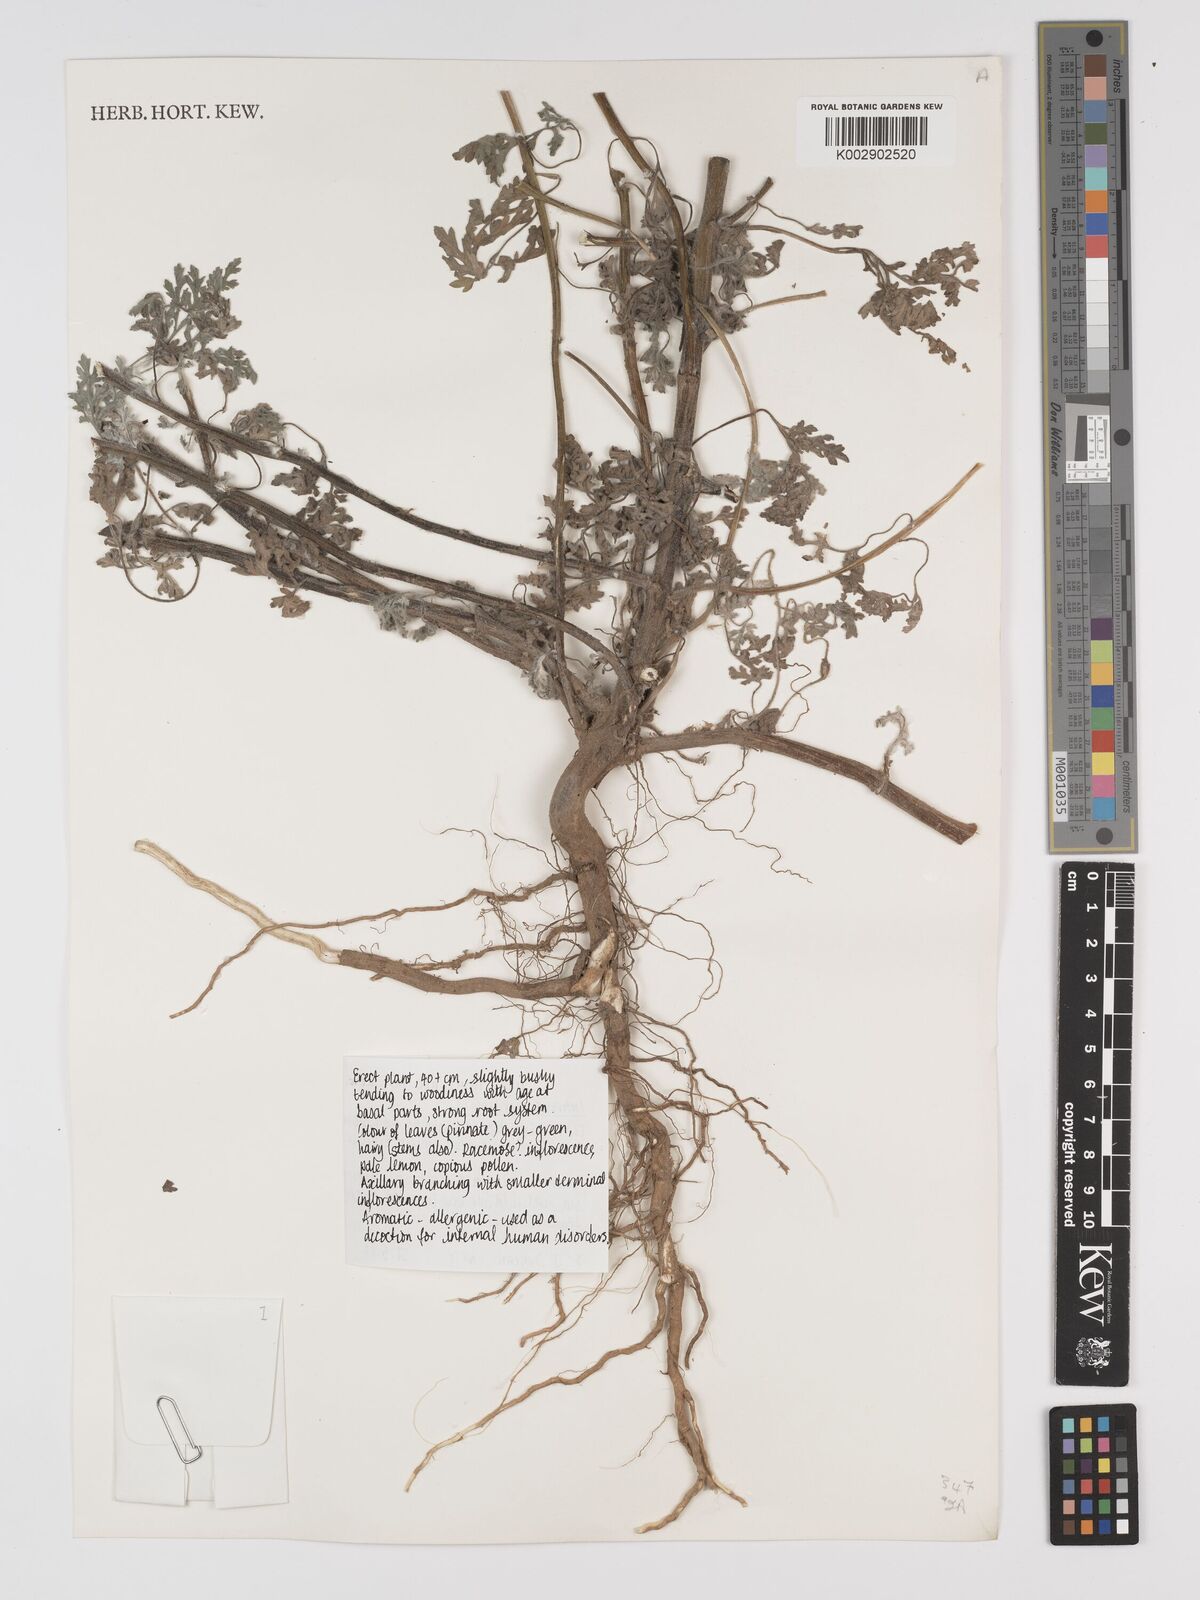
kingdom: Plantae
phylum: Tracheophyta
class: Magnoliopsida
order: Asterales
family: Asteraceae
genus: Ambrosia
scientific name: Ambrosia maritima
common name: Sea ambrosia
